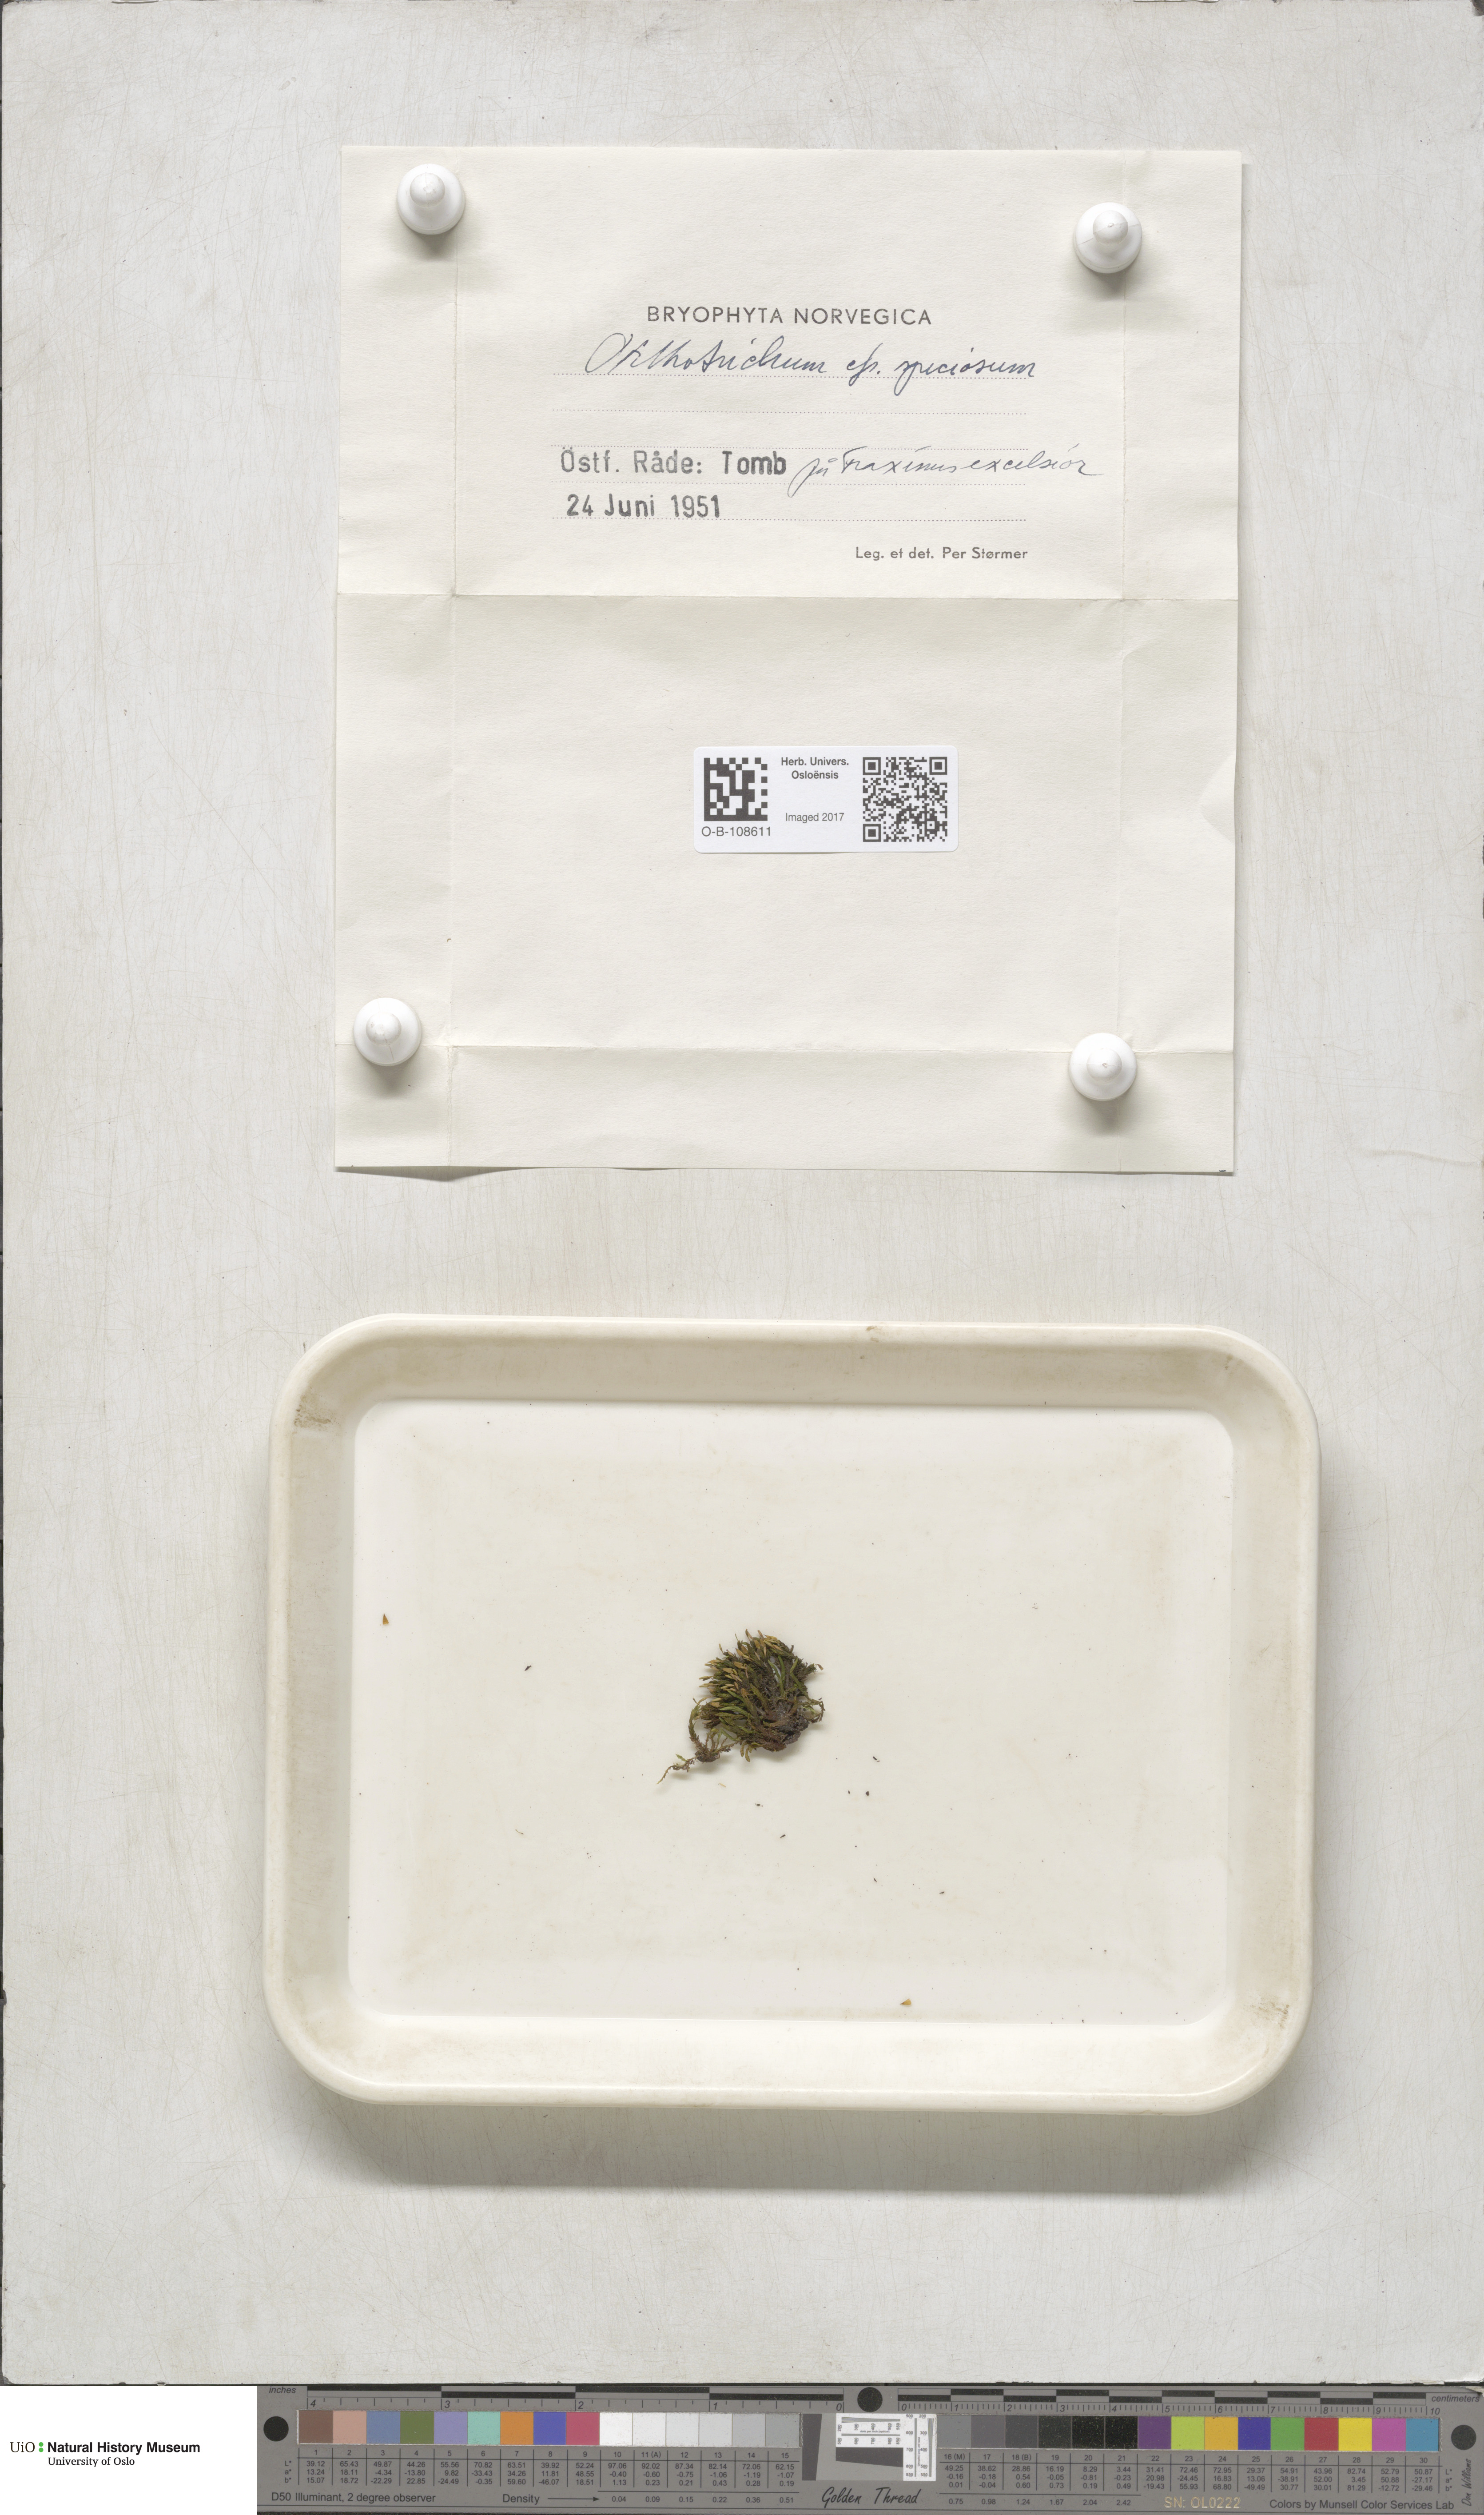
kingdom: Plantae
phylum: Bryophyta
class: Bryopsida
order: Orthotrichales
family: Orthotrichaceae
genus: Lewinskya
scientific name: Lewinskya speciosa
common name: Showy bristle moss
